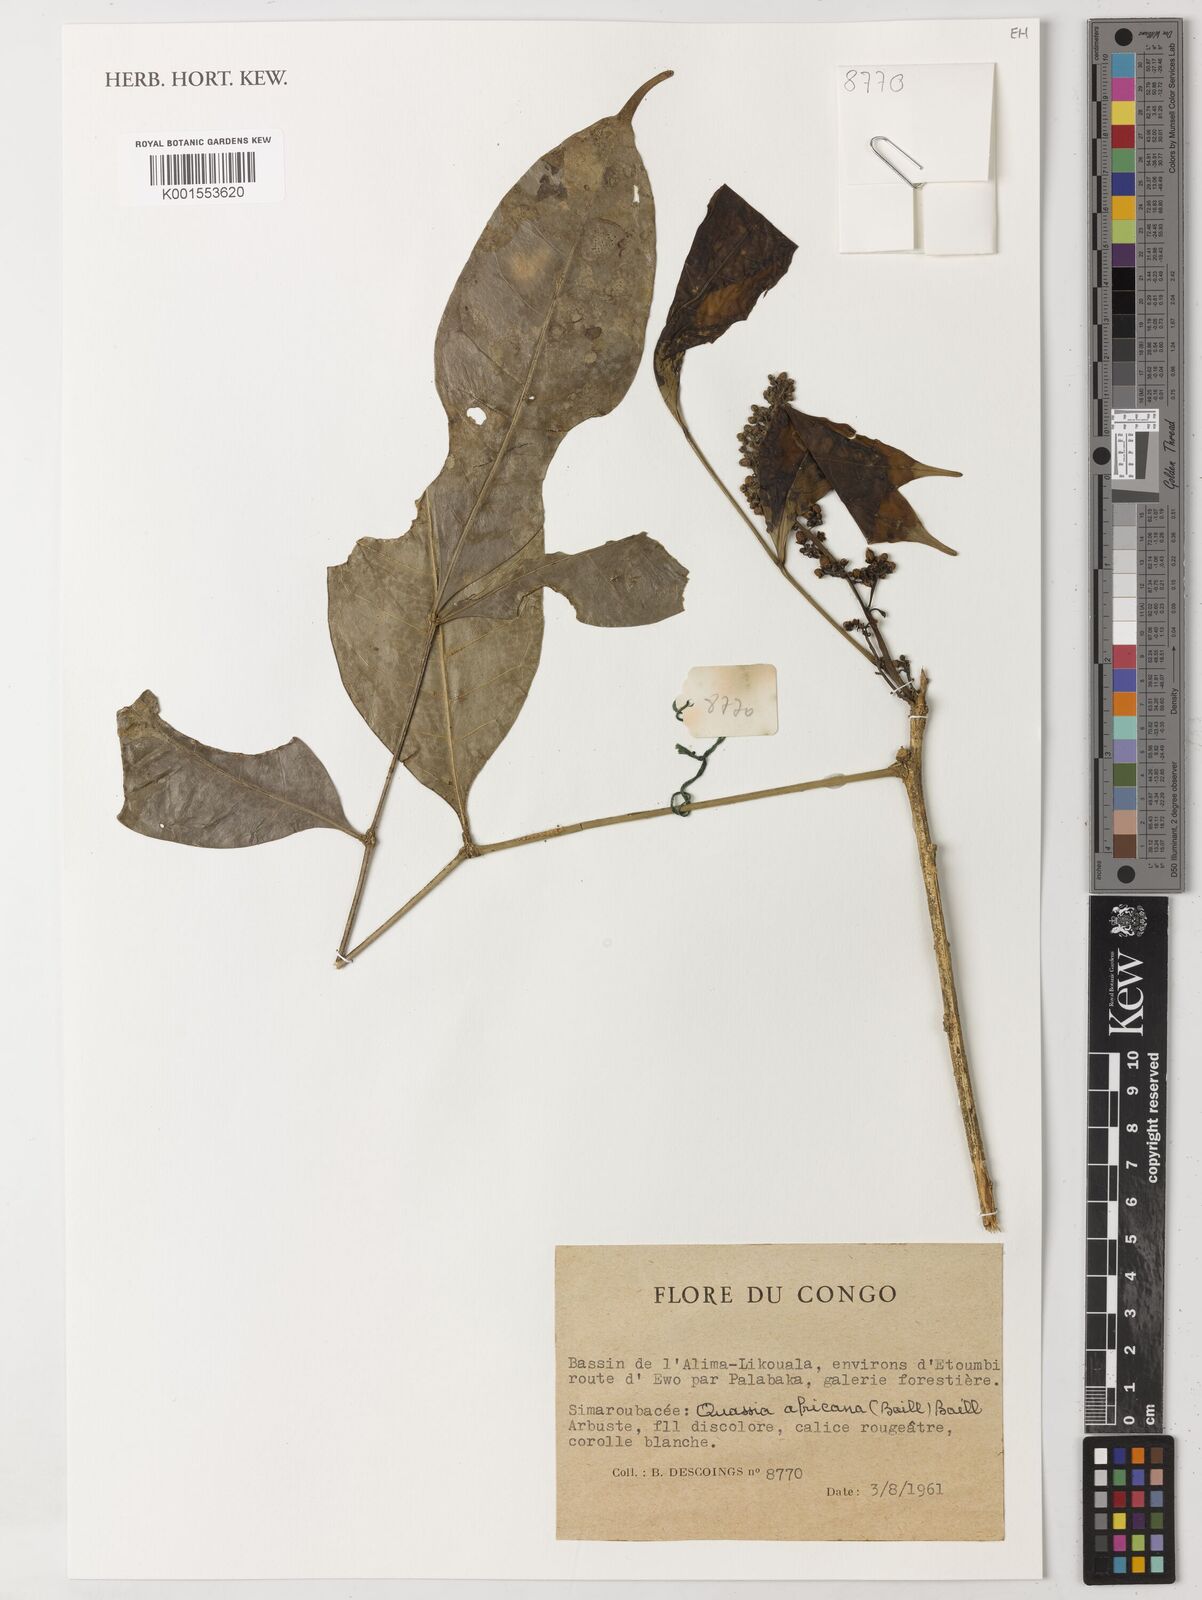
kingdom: Plantae
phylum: Tracheophyta
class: Magnoliopsida
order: Sapindales
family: Simaroubaceae
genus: Simaba
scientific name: Simaba africana
